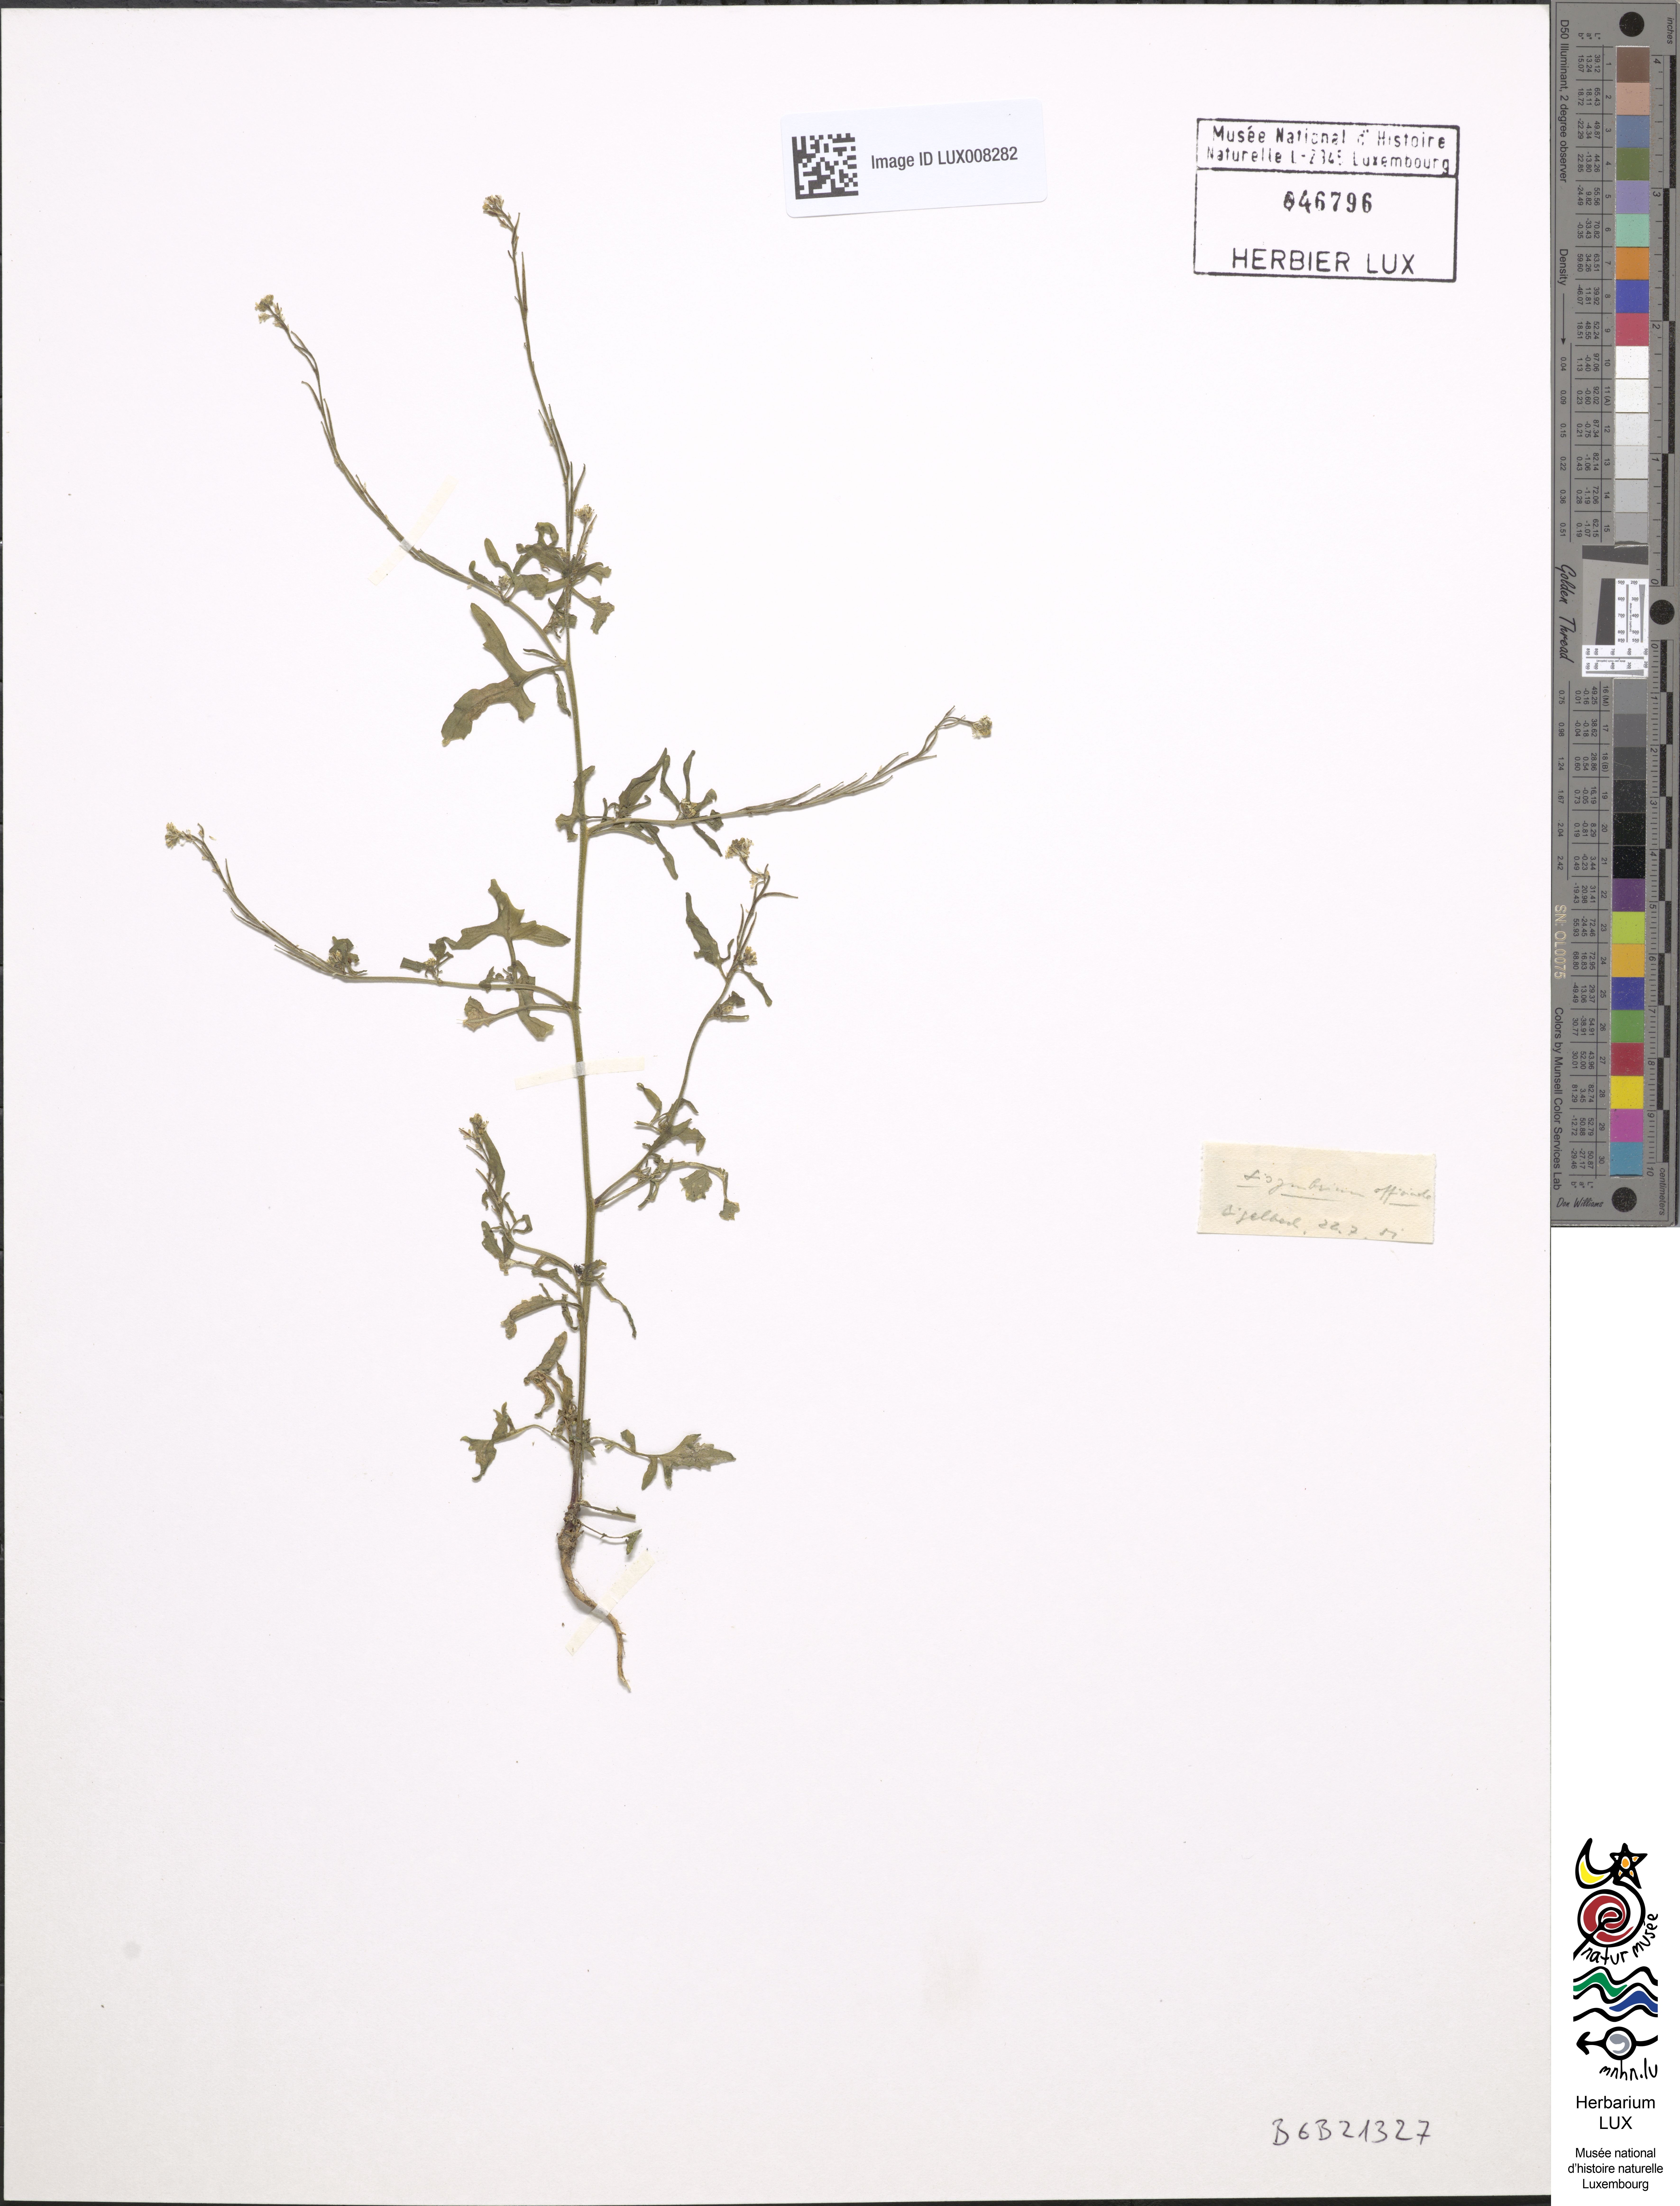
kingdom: Plantae
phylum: Tracheophyta
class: Magnoliopsida
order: Brassicales
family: Brassicaceae
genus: Sisymbrium
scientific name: Sisymbrium officinale
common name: Hedge mustard
